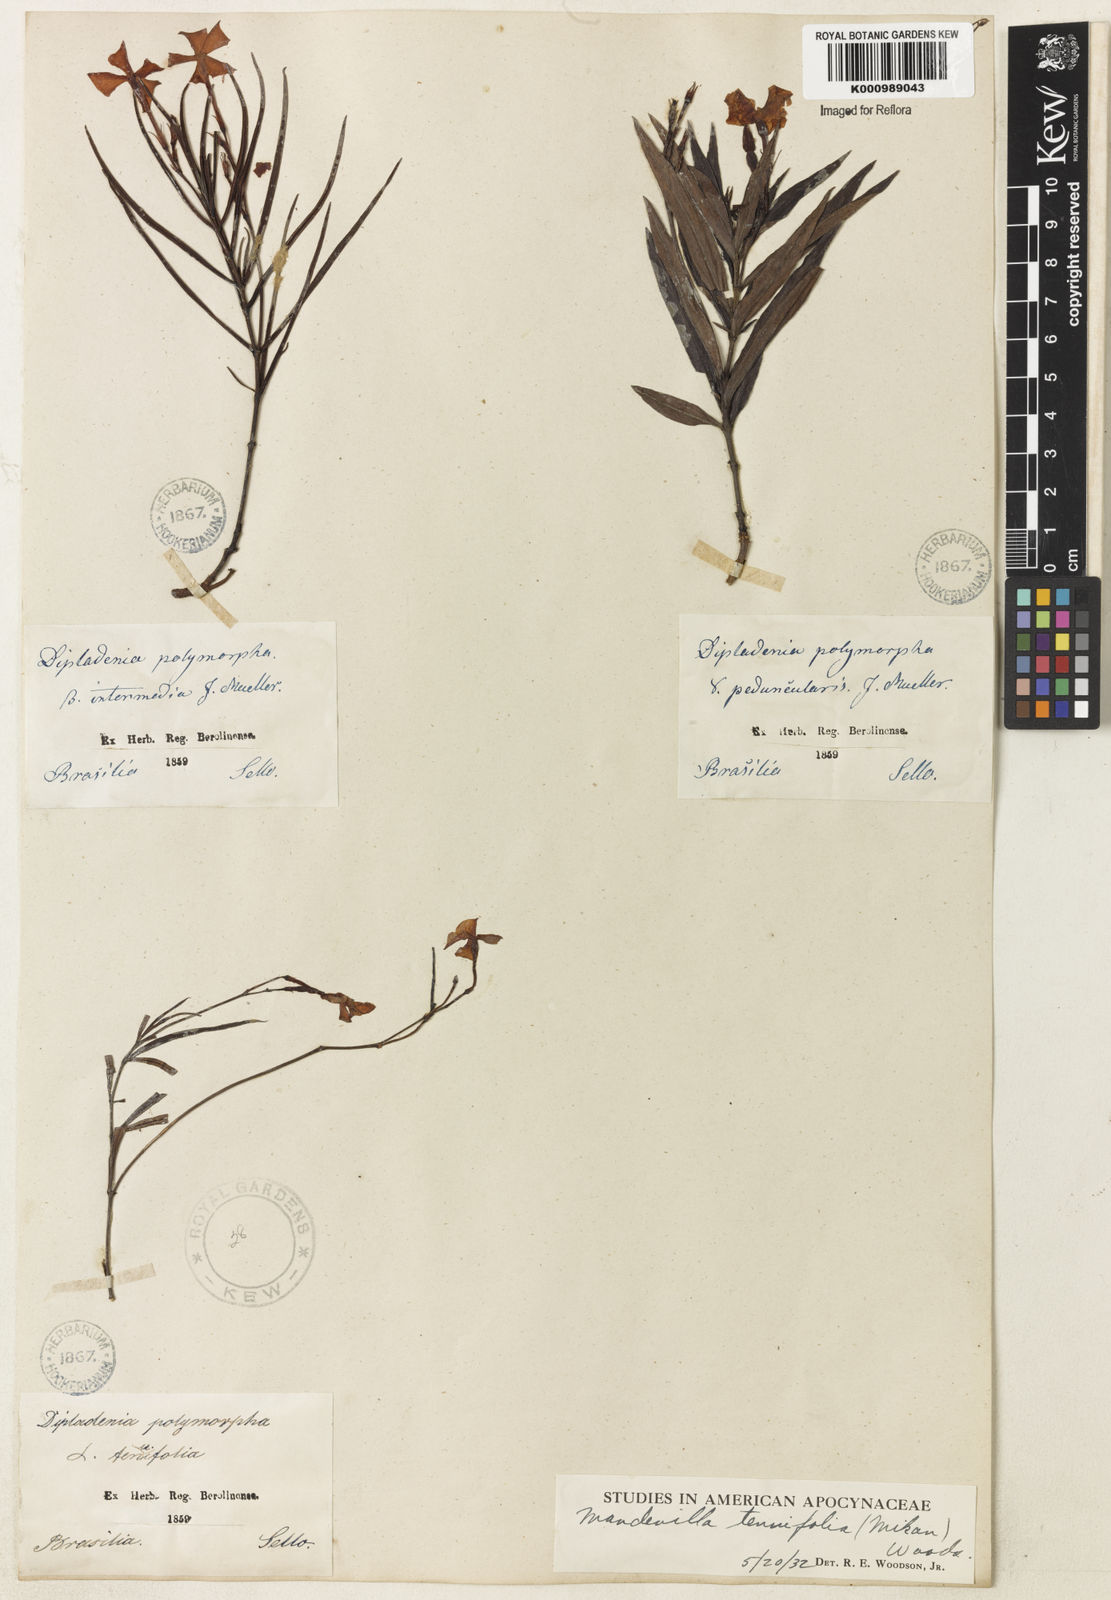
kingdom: Plantae
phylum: Tracheophyta
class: Magnoliopsida
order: Gentianales
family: Apocynaceae
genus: Mandevilla
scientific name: Mandevilla tenuifolia
